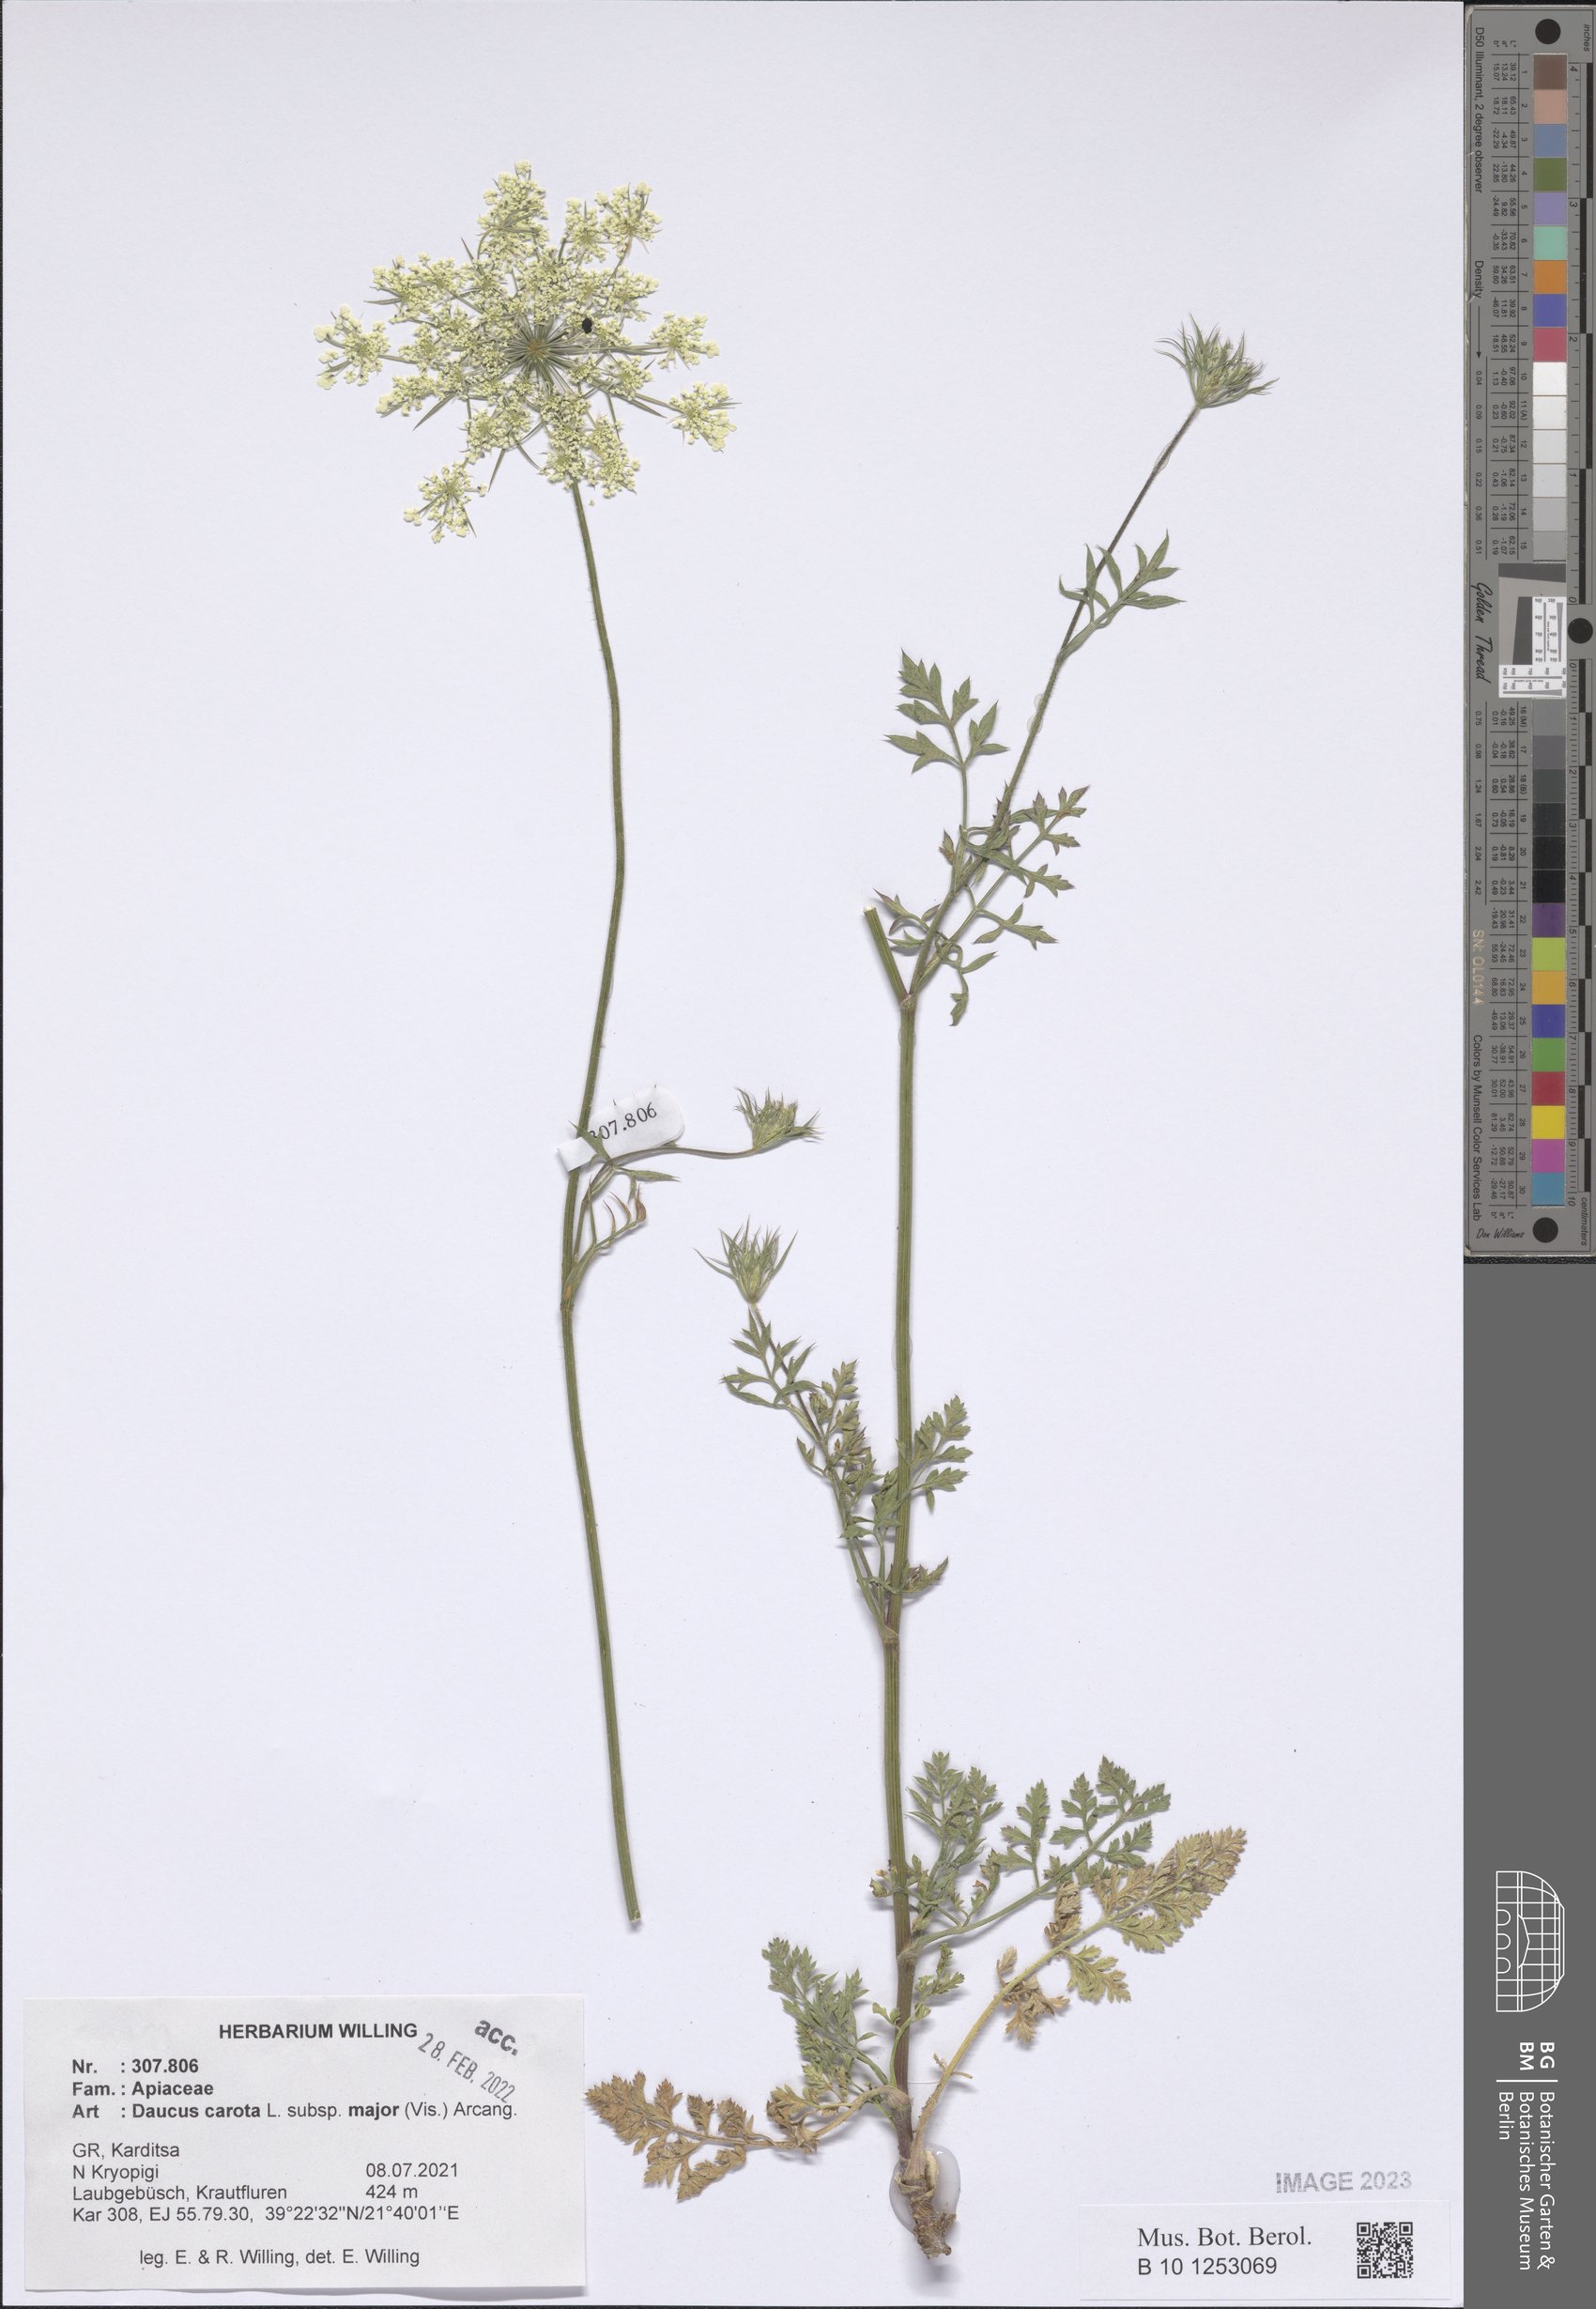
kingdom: Plantae
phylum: Tracheophyta
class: Magnoliopsida
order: Apiales
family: Apiaceae
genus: Daucus
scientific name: Daucus carota
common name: Wild carrot
